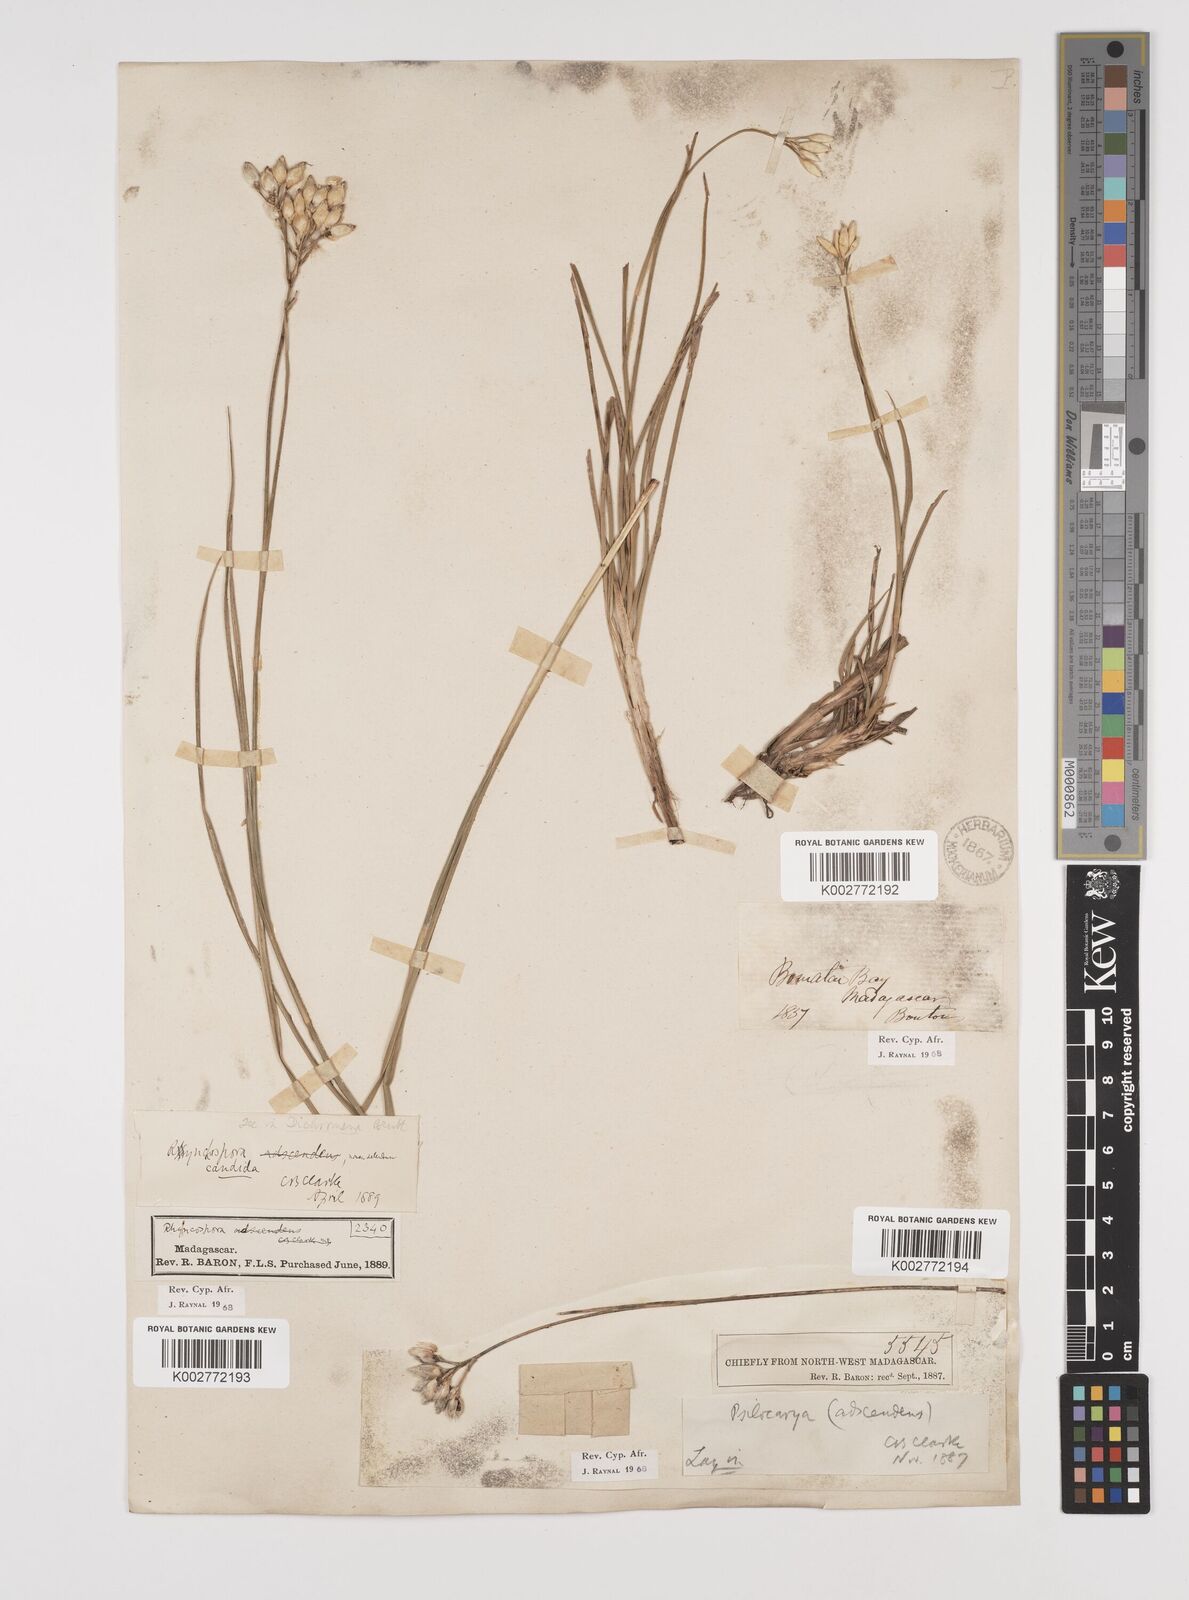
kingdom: Plantae
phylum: Tracheophyta
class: Liliopsida
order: Poales
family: Cyperaceae
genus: Rhynchospora
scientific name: Rhynchospora candida
